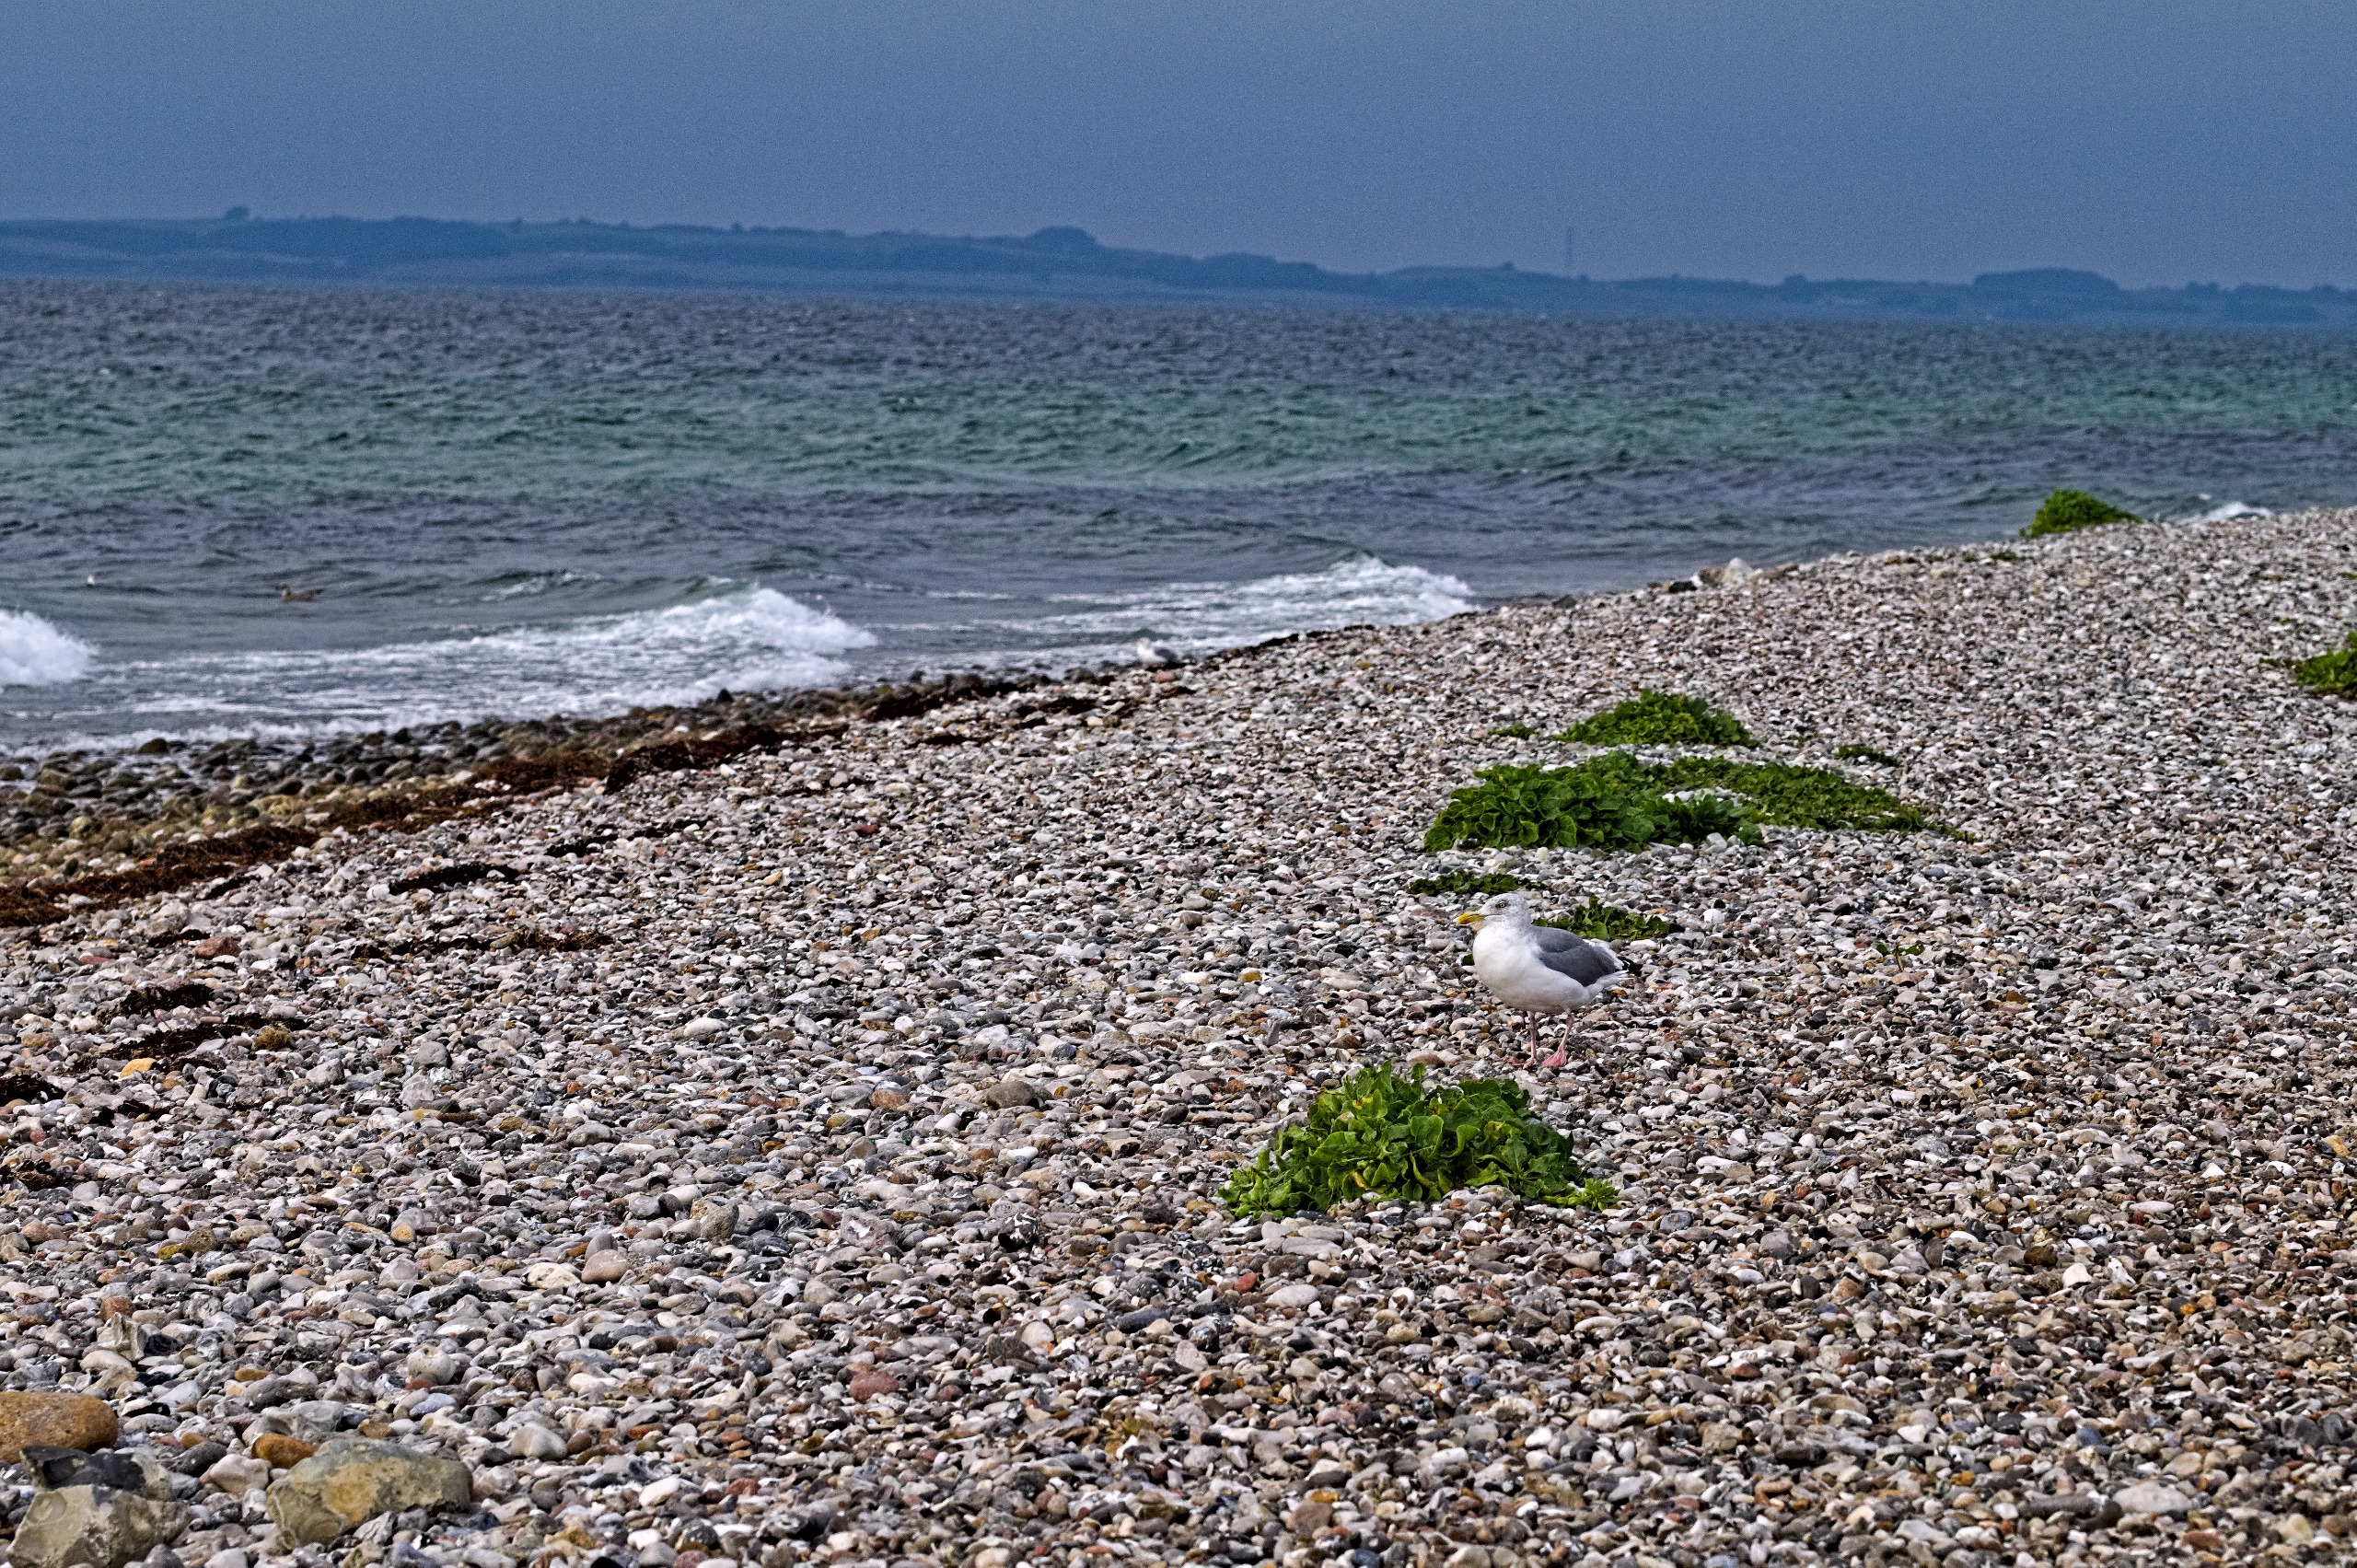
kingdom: Animalia
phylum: Chordata
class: Aves
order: Charadriiformes
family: Laridae
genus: Larus
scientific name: Larus argentatus
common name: Sølvmåge
